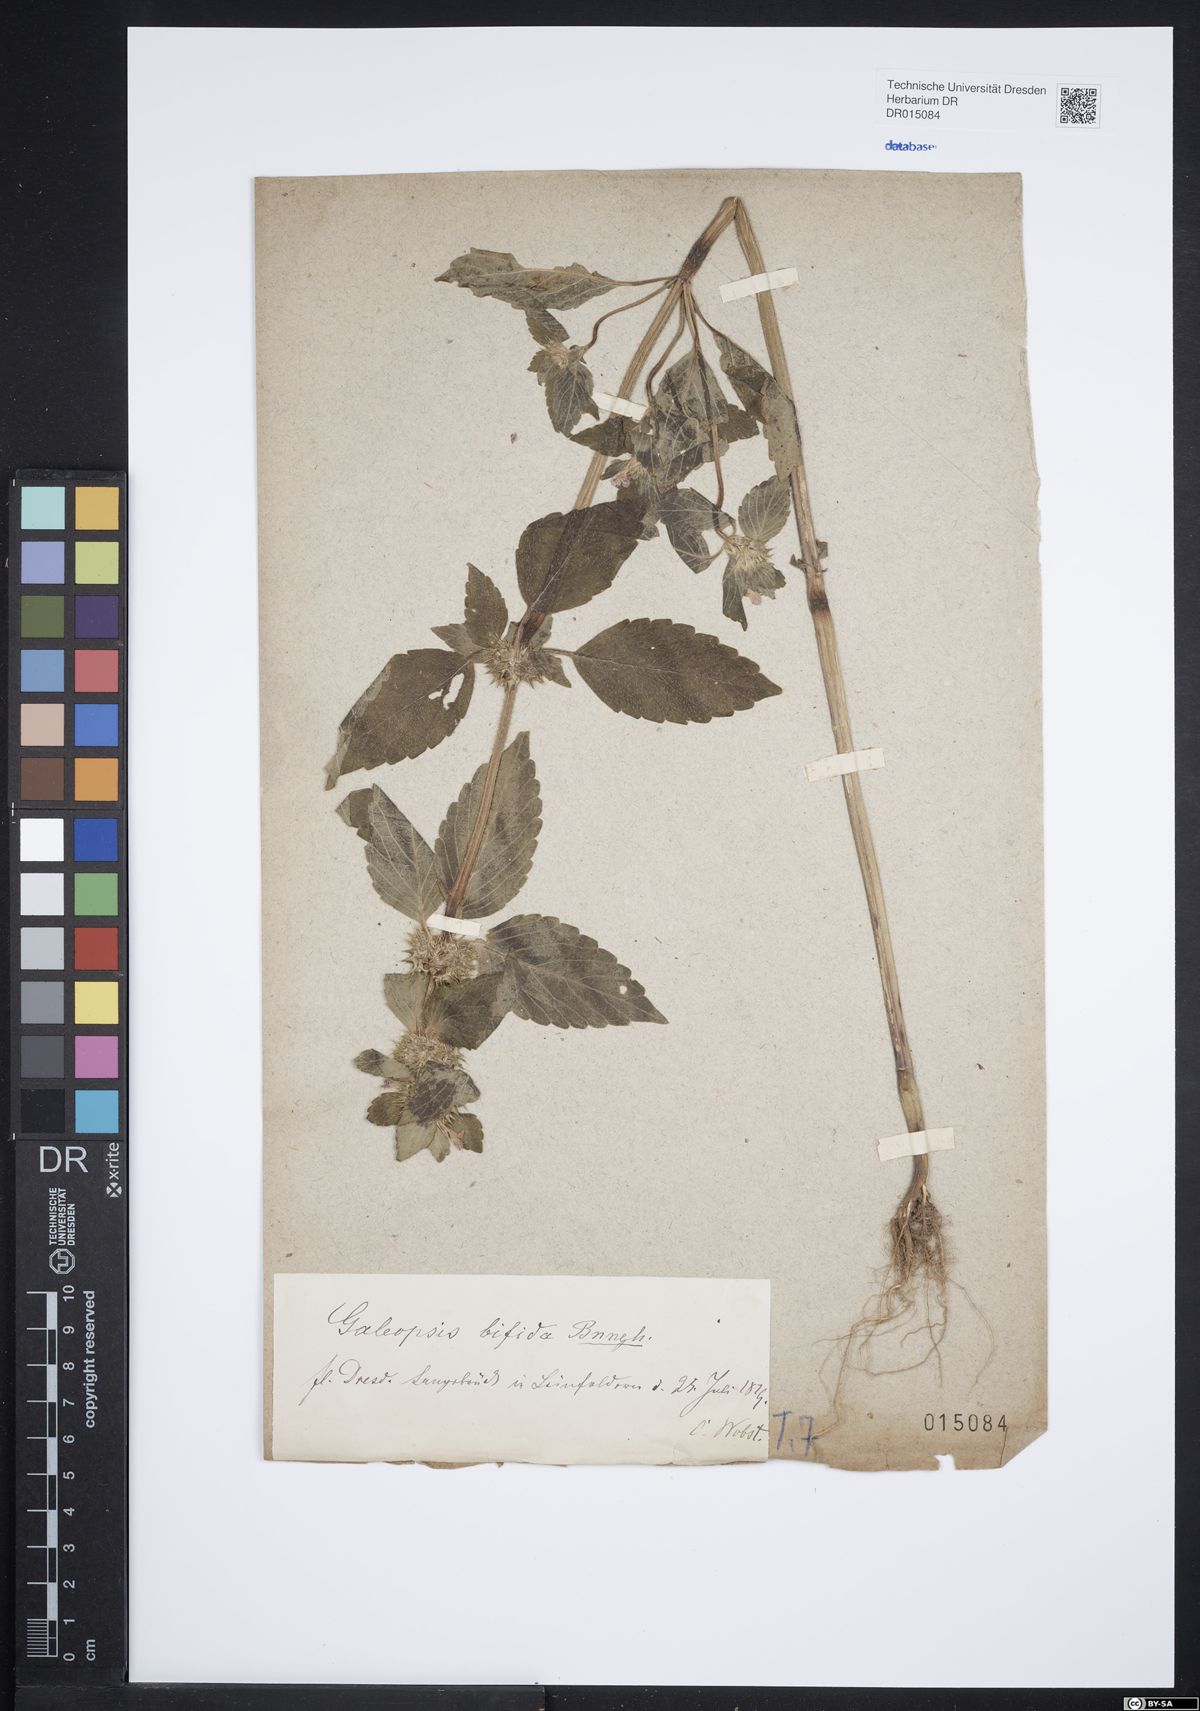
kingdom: Plantae
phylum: Tracheophyta
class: Magnoliopsida
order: Lamiales
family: Lamiaceae
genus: Galeopsis
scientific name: Galeopsis bifida
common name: Bifid hemp-nettle
